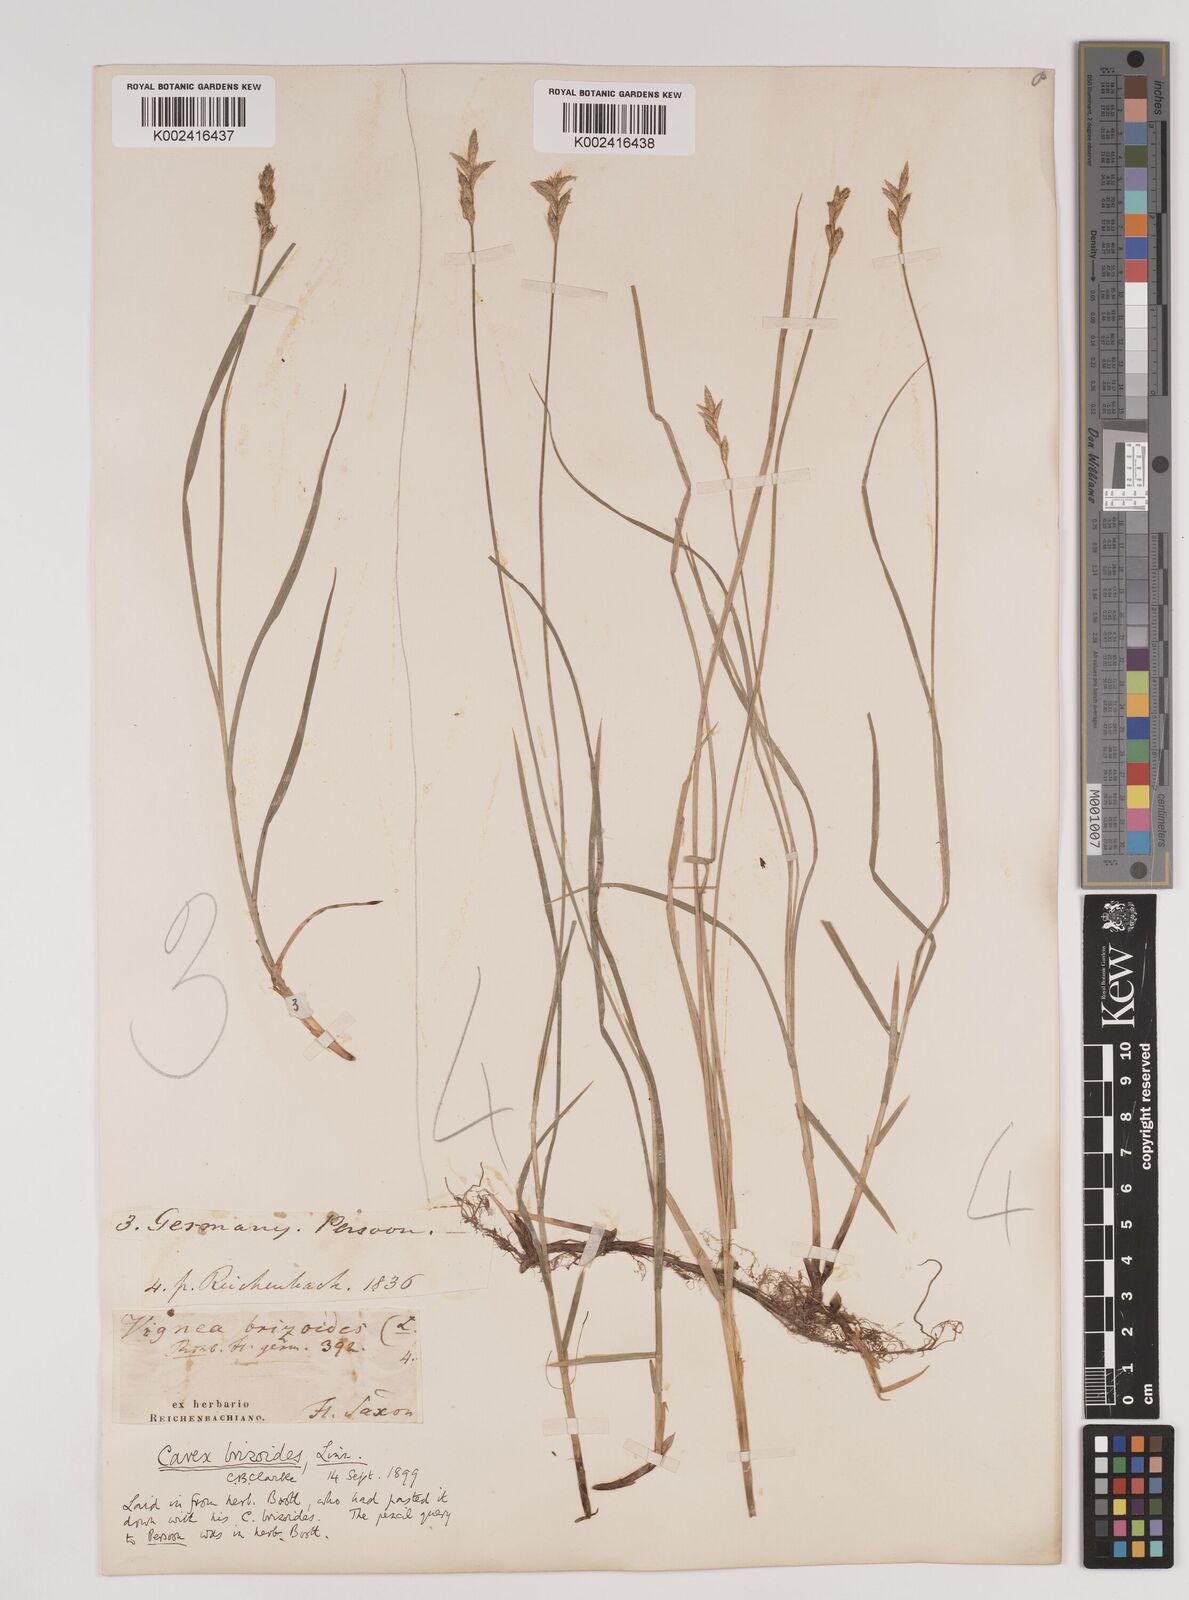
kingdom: Plantae
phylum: Tracheophyta
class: Liliopsida
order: Poales
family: Cyperaceae
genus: Carex
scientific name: Carex brizoides
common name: Quaking-grass sedge
